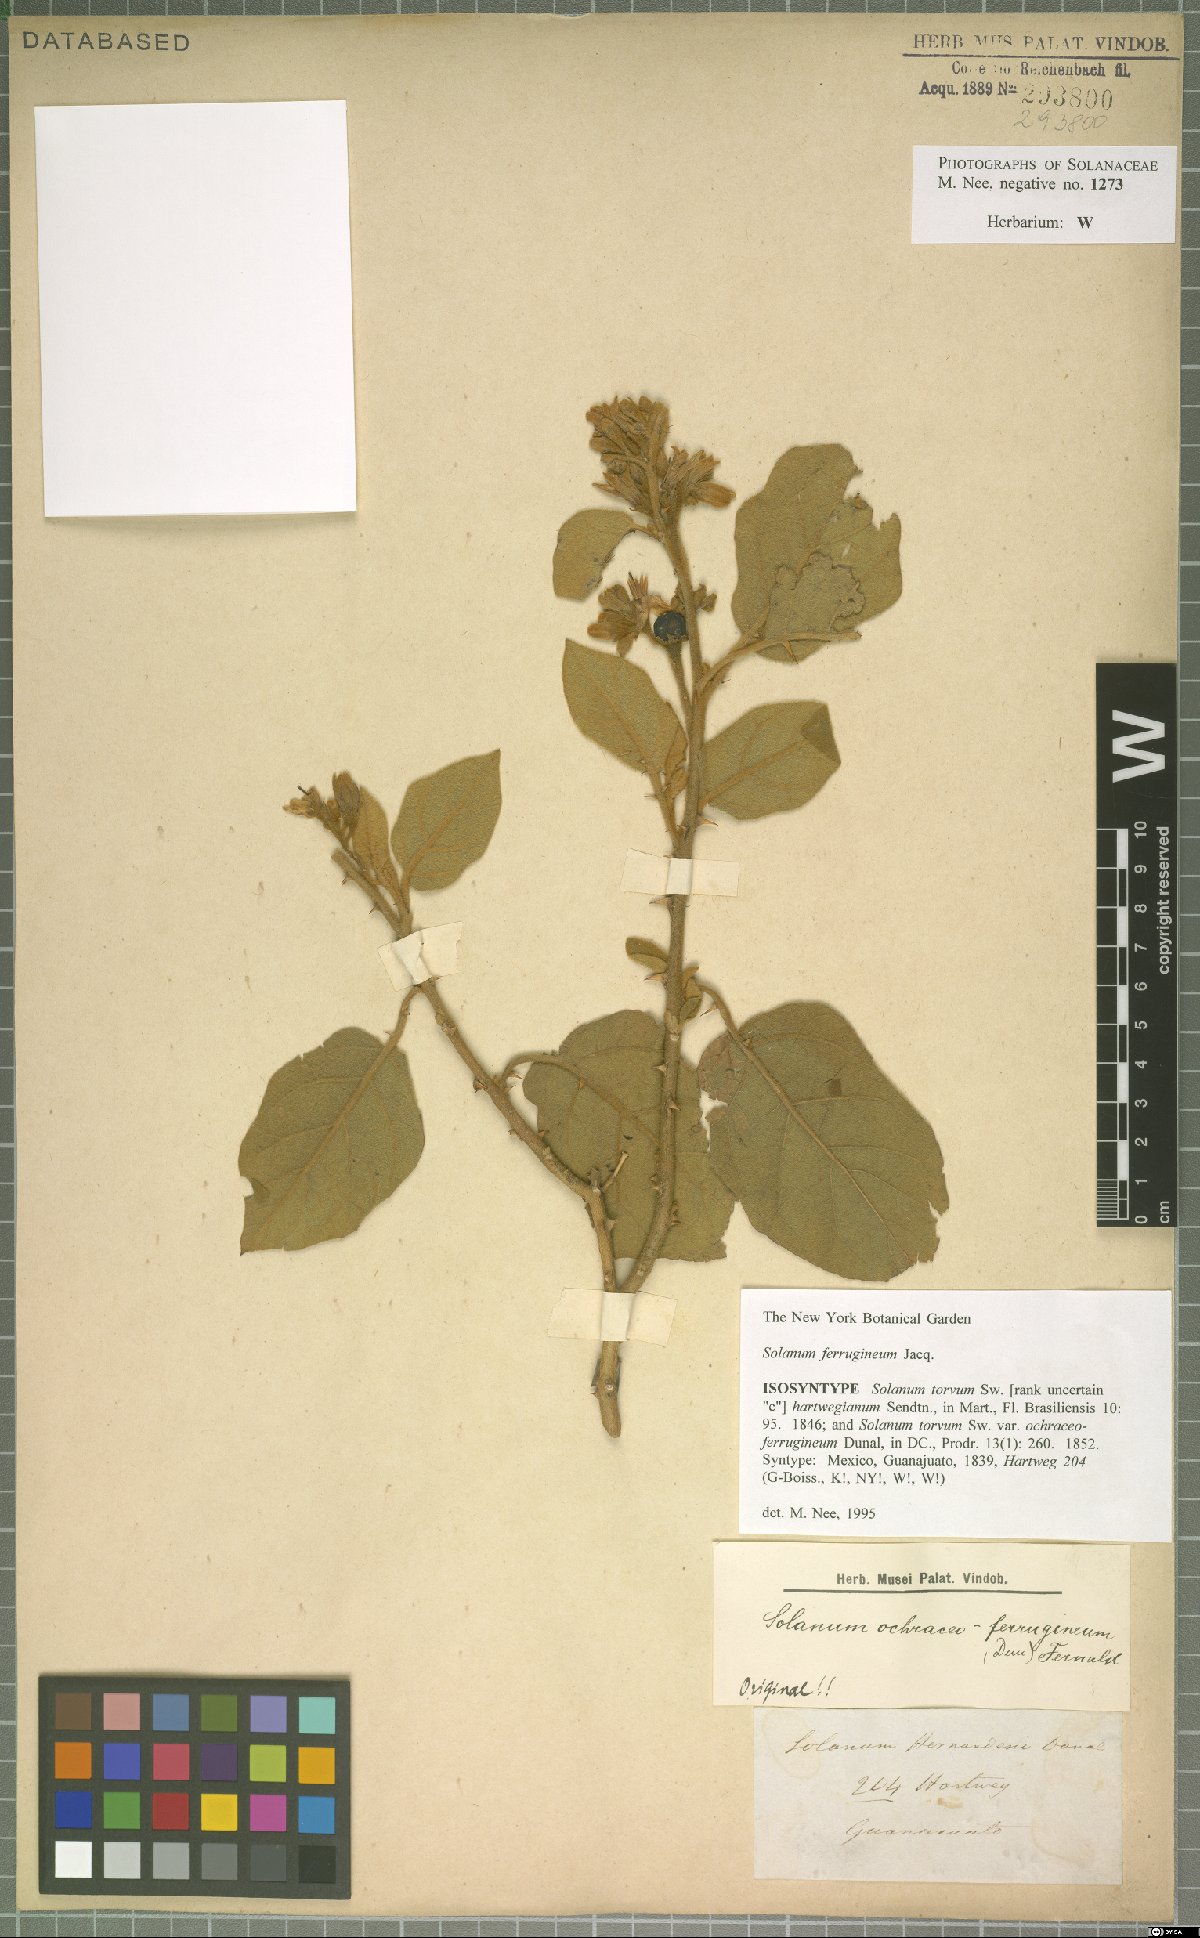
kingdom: Plantae
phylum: Tracheophyta
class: Magnoliopsida
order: Solanales
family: Solanaceae
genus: Solanum
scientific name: Solanum ferrugineum
